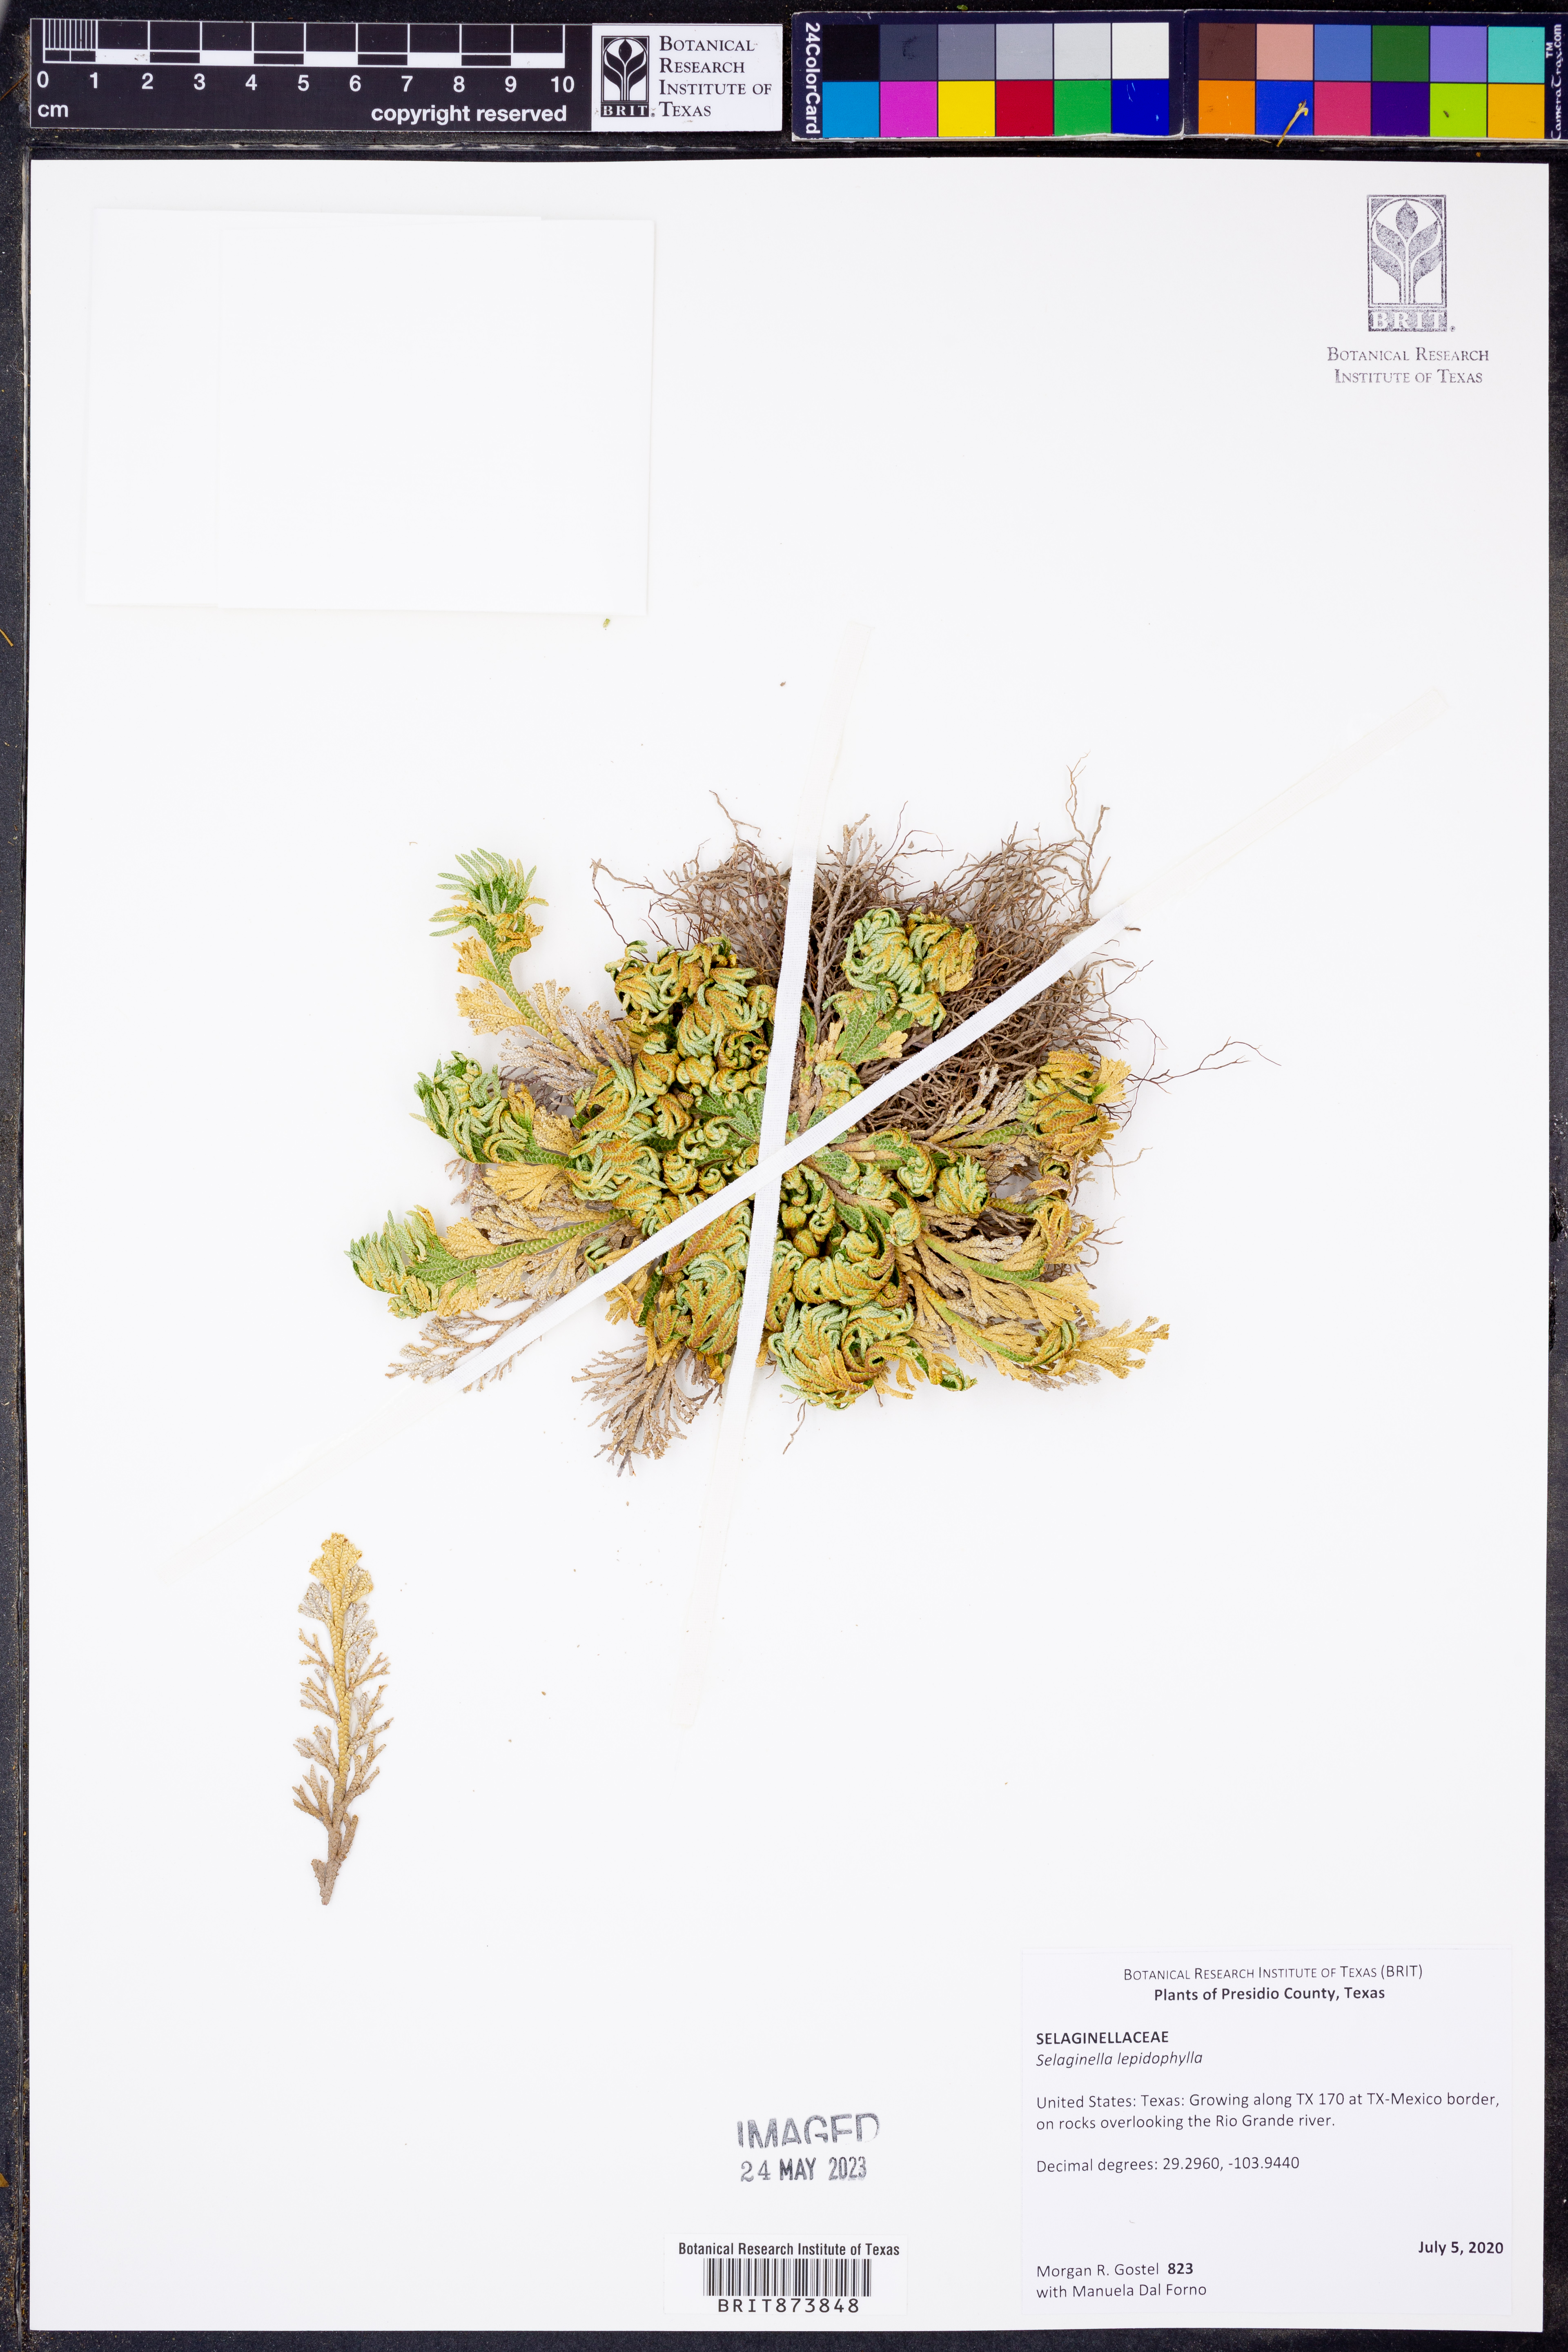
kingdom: Plantae
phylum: Tracheophyta
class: Lycopodiopsida
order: Selaginellales
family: Selaginellaceae
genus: Selaginella
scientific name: Selaginella lepidophylla
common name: Rose-of-jericho
